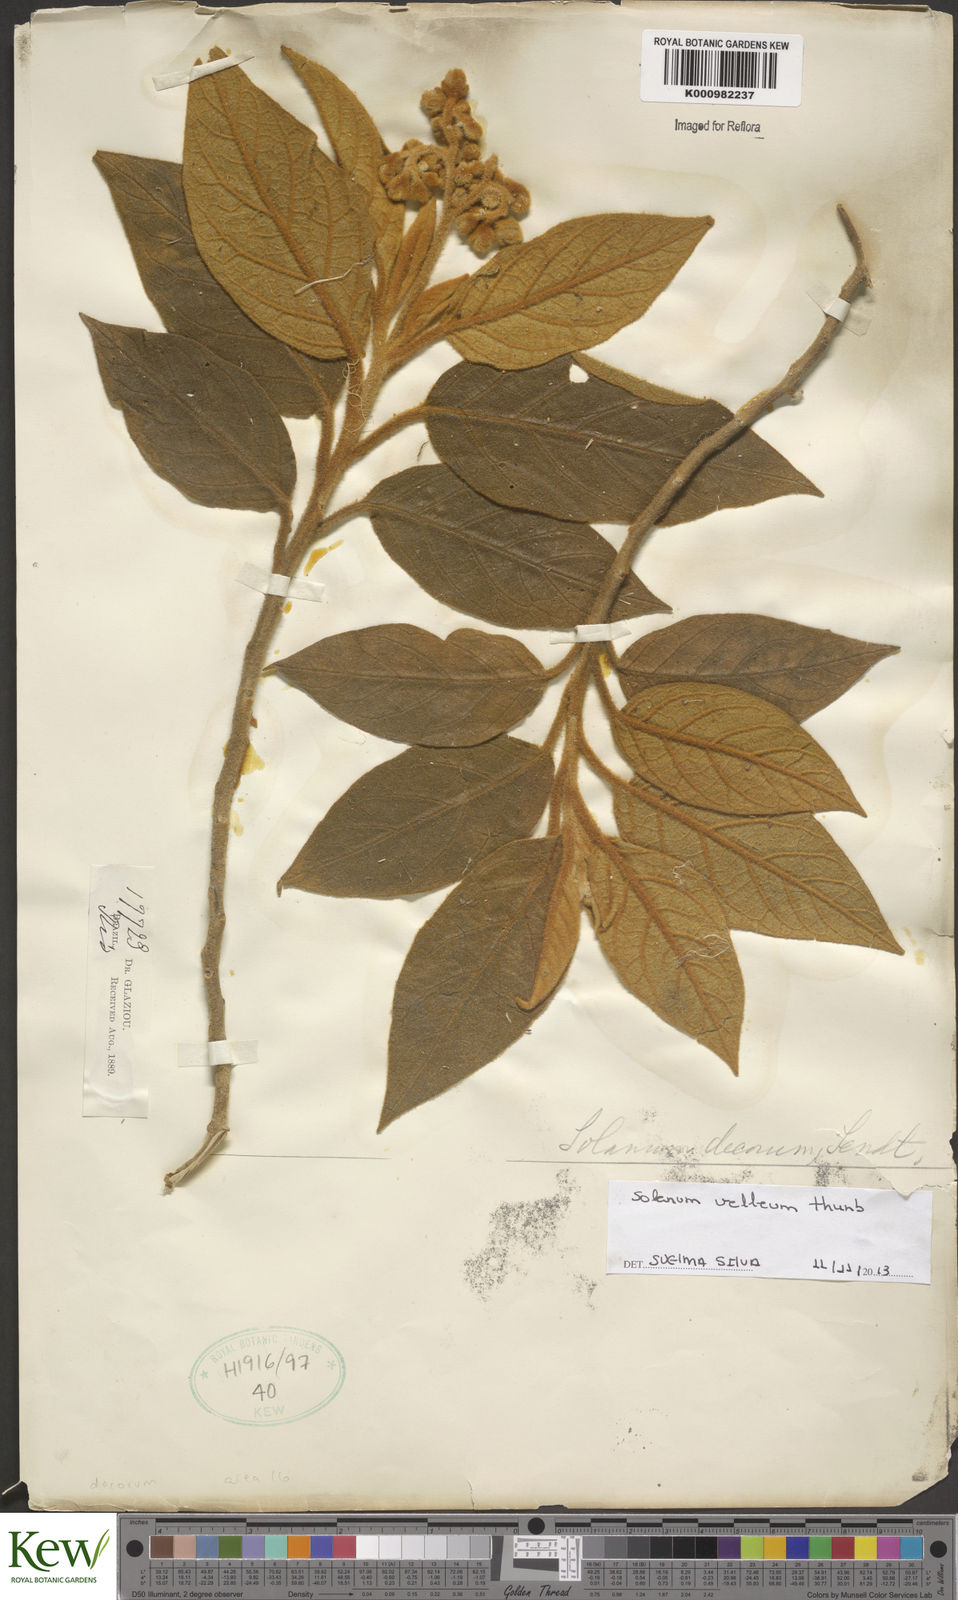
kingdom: Plantae
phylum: Tracheophyta
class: Magnoliopsida
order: Solanales
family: Solanaceae
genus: Solanum
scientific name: Solanum velleum
